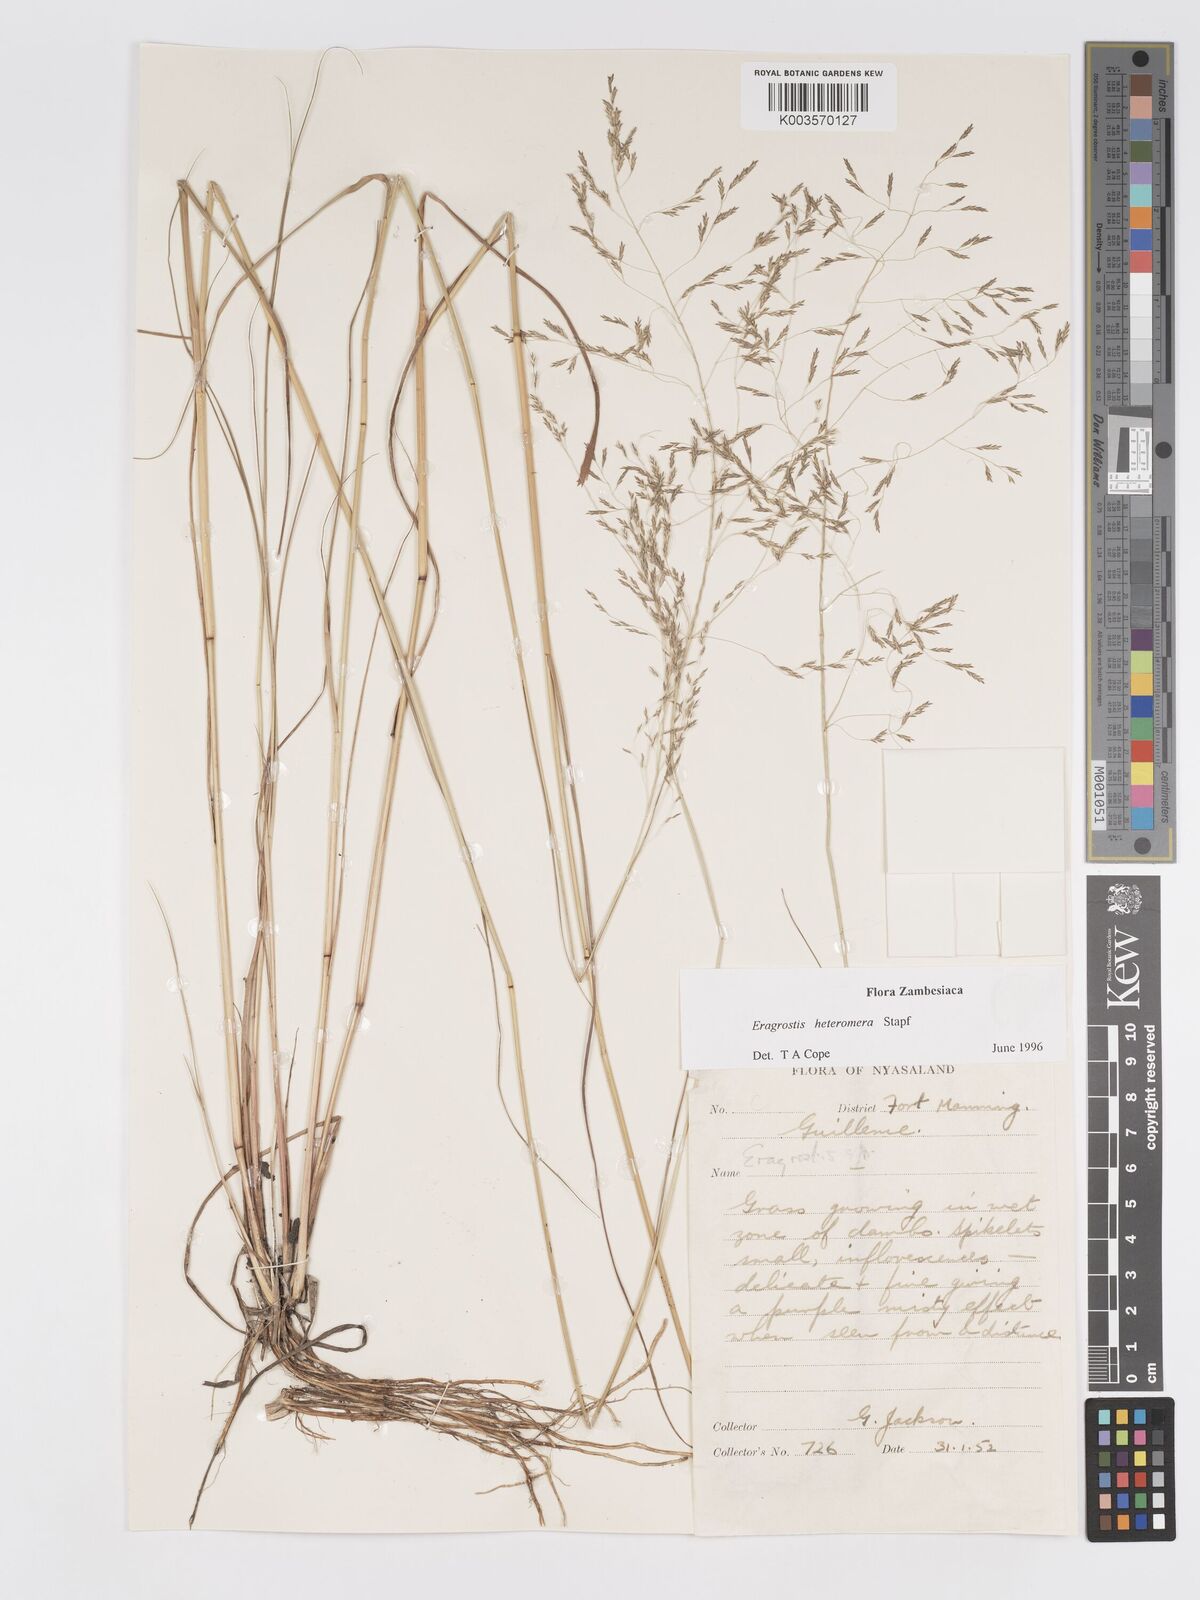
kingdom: Plantae
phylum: Tracheophyta
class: Liliopsida
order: Poales
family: Poaceae
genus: Eragrostis
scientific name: Eragrostis heteromera
